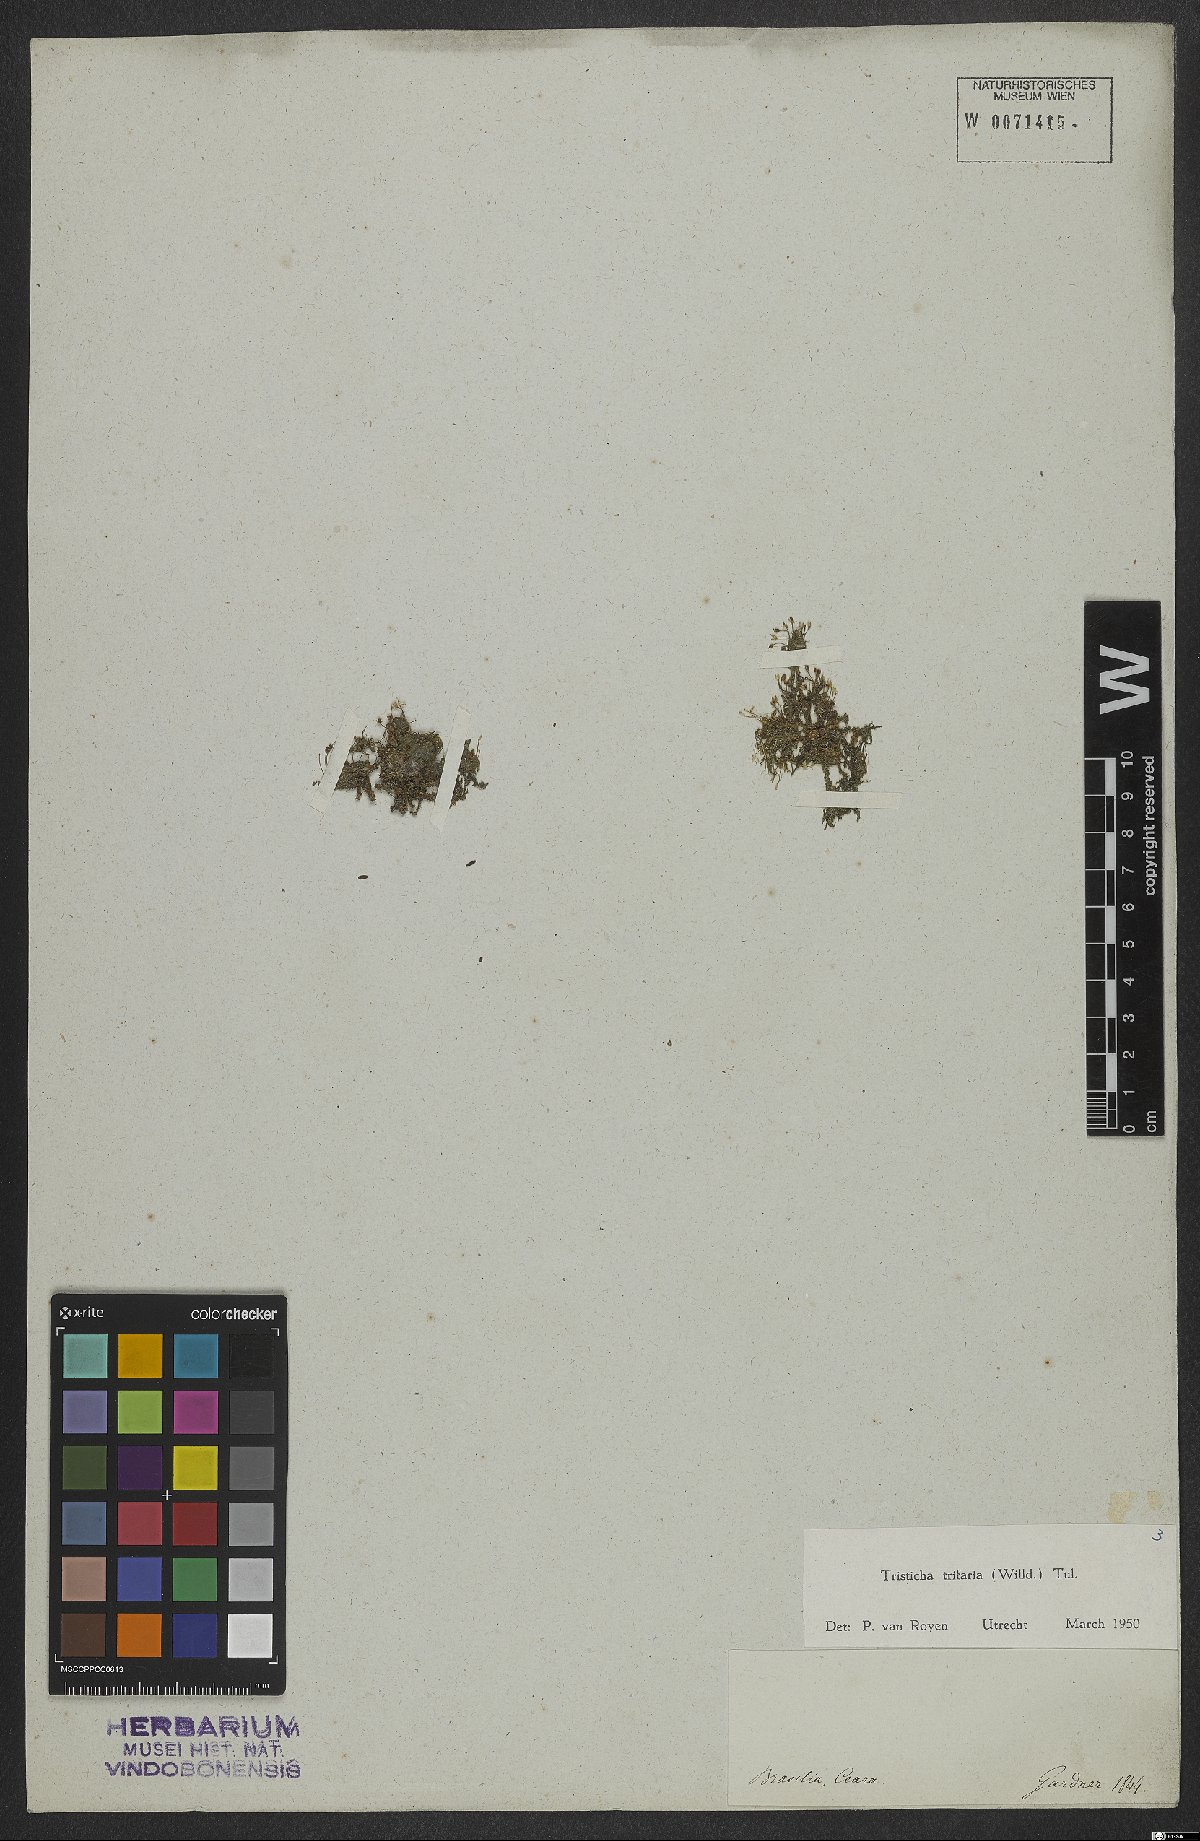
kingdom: Plantae
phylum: Tracheophyta
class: Magnoliopsida
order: Malpighiales
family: Podostemaceae
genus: Tristicha
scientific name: Tristicha trifaria
